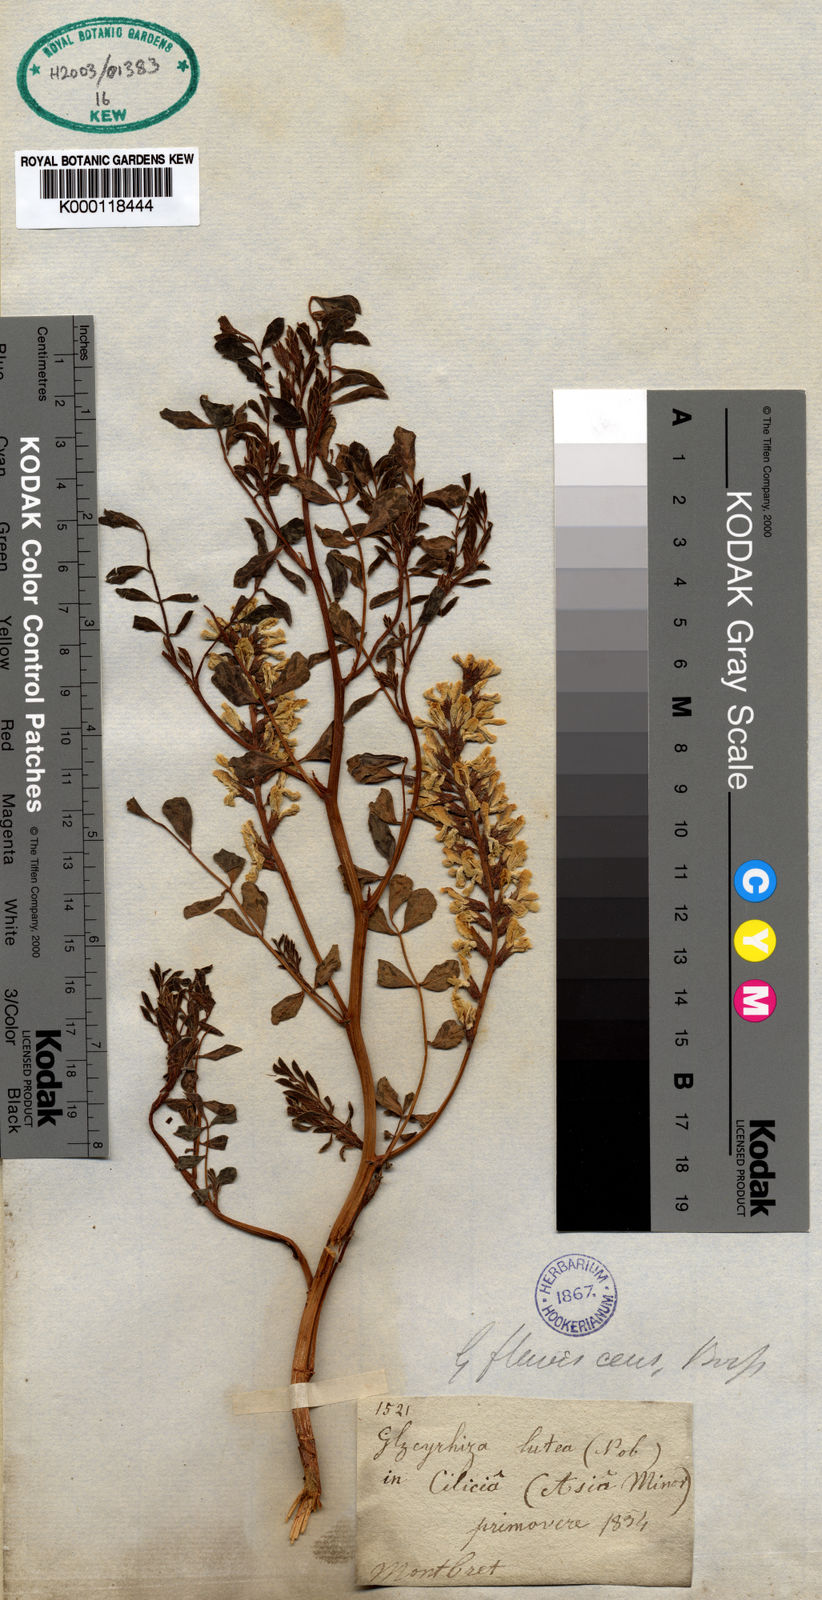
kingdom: Plantae
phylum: Tracheophyta
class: Magnoliopsida
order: Fabales
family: Fabaceae
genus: Glycyrrhizopsis
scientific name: Glycyrrhizopsis flavescens
